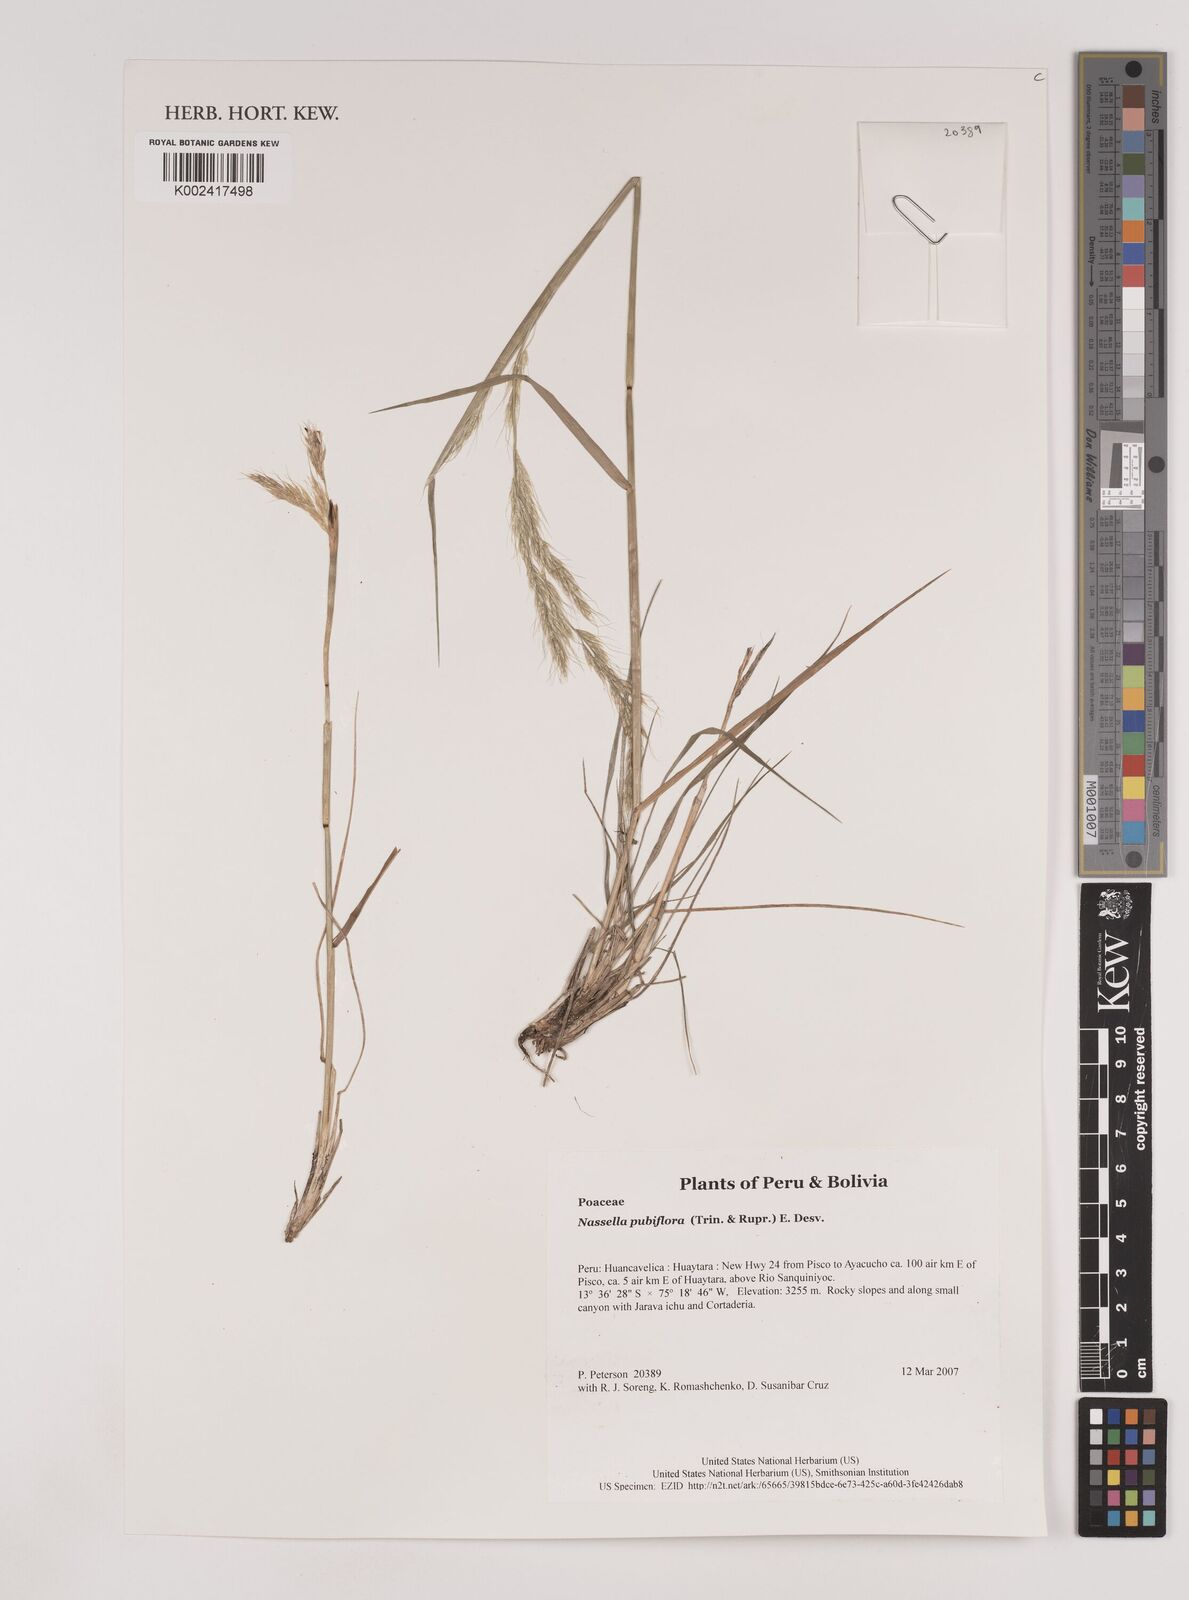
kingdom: Plantae
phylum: Tracheophyta
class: Liliopsida
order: Poales
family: Poaceae
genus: Nassella
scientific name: Nassella pubiflora
